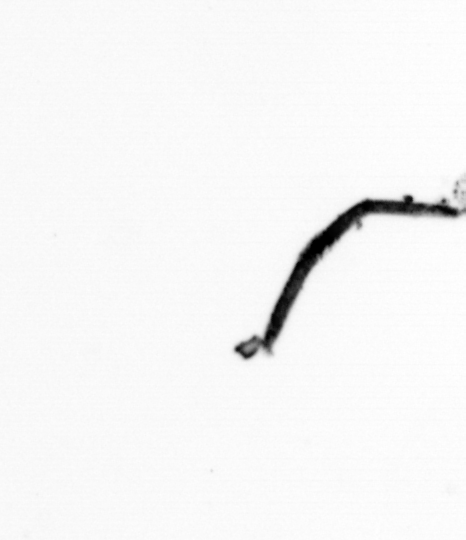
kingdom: Bacteria
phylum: Cyanobacteria
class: Cyanobacteriia
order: Cyanobacteriales
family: Microcoleaceae
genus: Trichodesmium
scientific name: Trichodesmium
